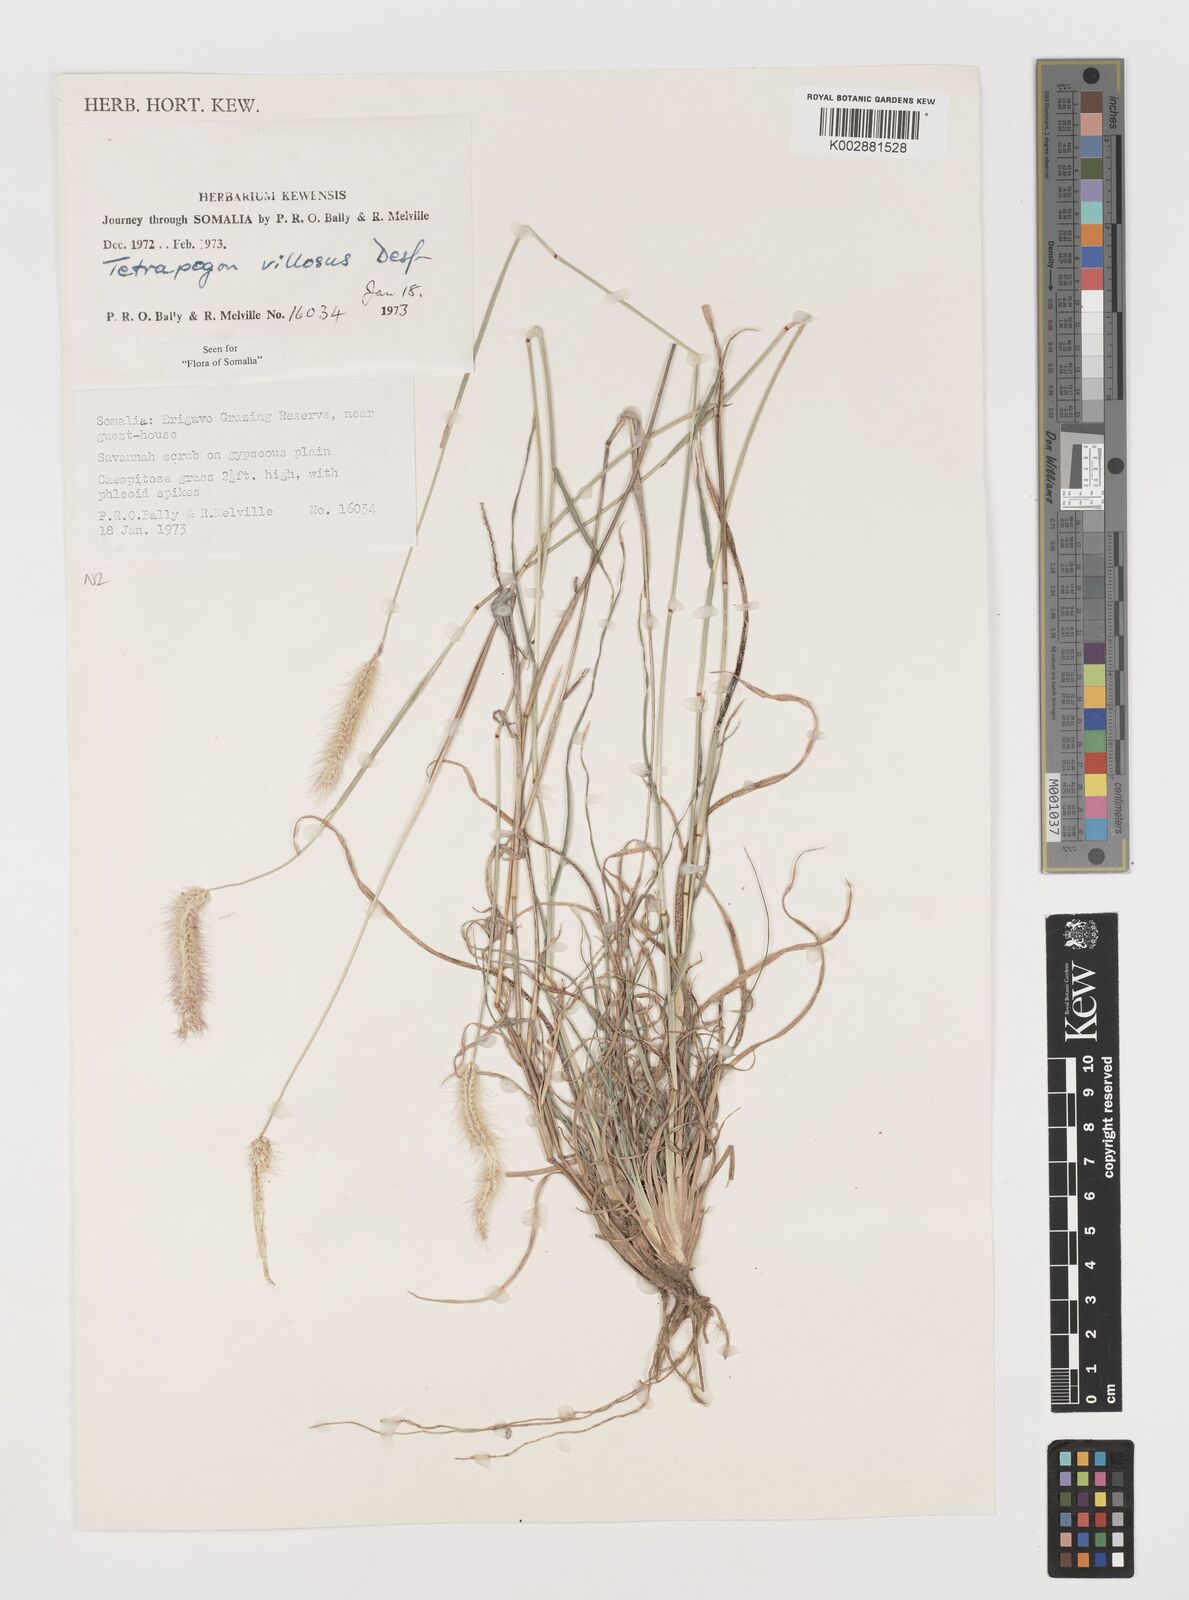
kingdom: Plantae
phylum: Tracheophyta
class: Liliopsida
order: Poales
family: Poaceae
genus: Tetrapogon
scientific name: Tetrapogon villosus
